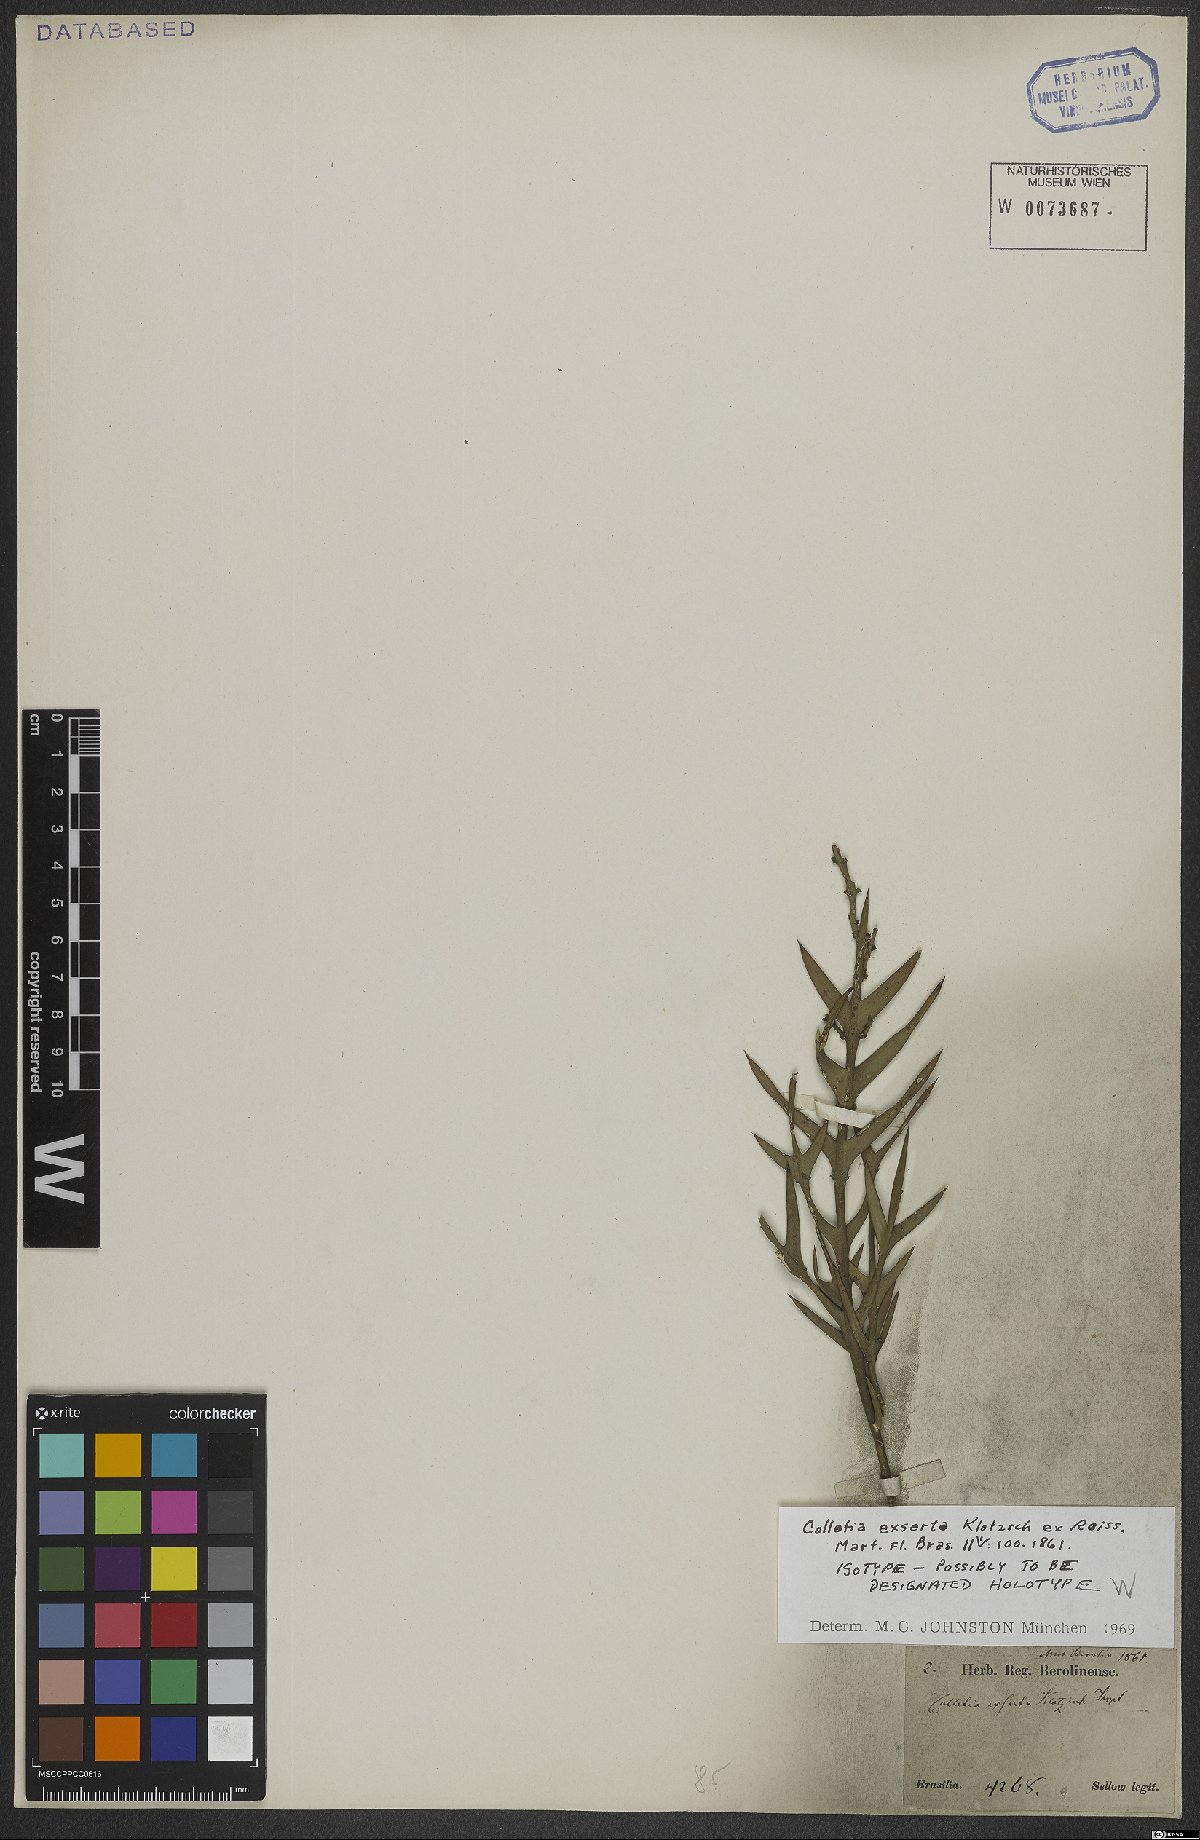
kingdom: Plantae
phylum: Tracheophyta
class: Magnoliopsida
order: Rosales
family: Rhamnaceae
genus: Colletia
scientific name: Colletia paradoxa
